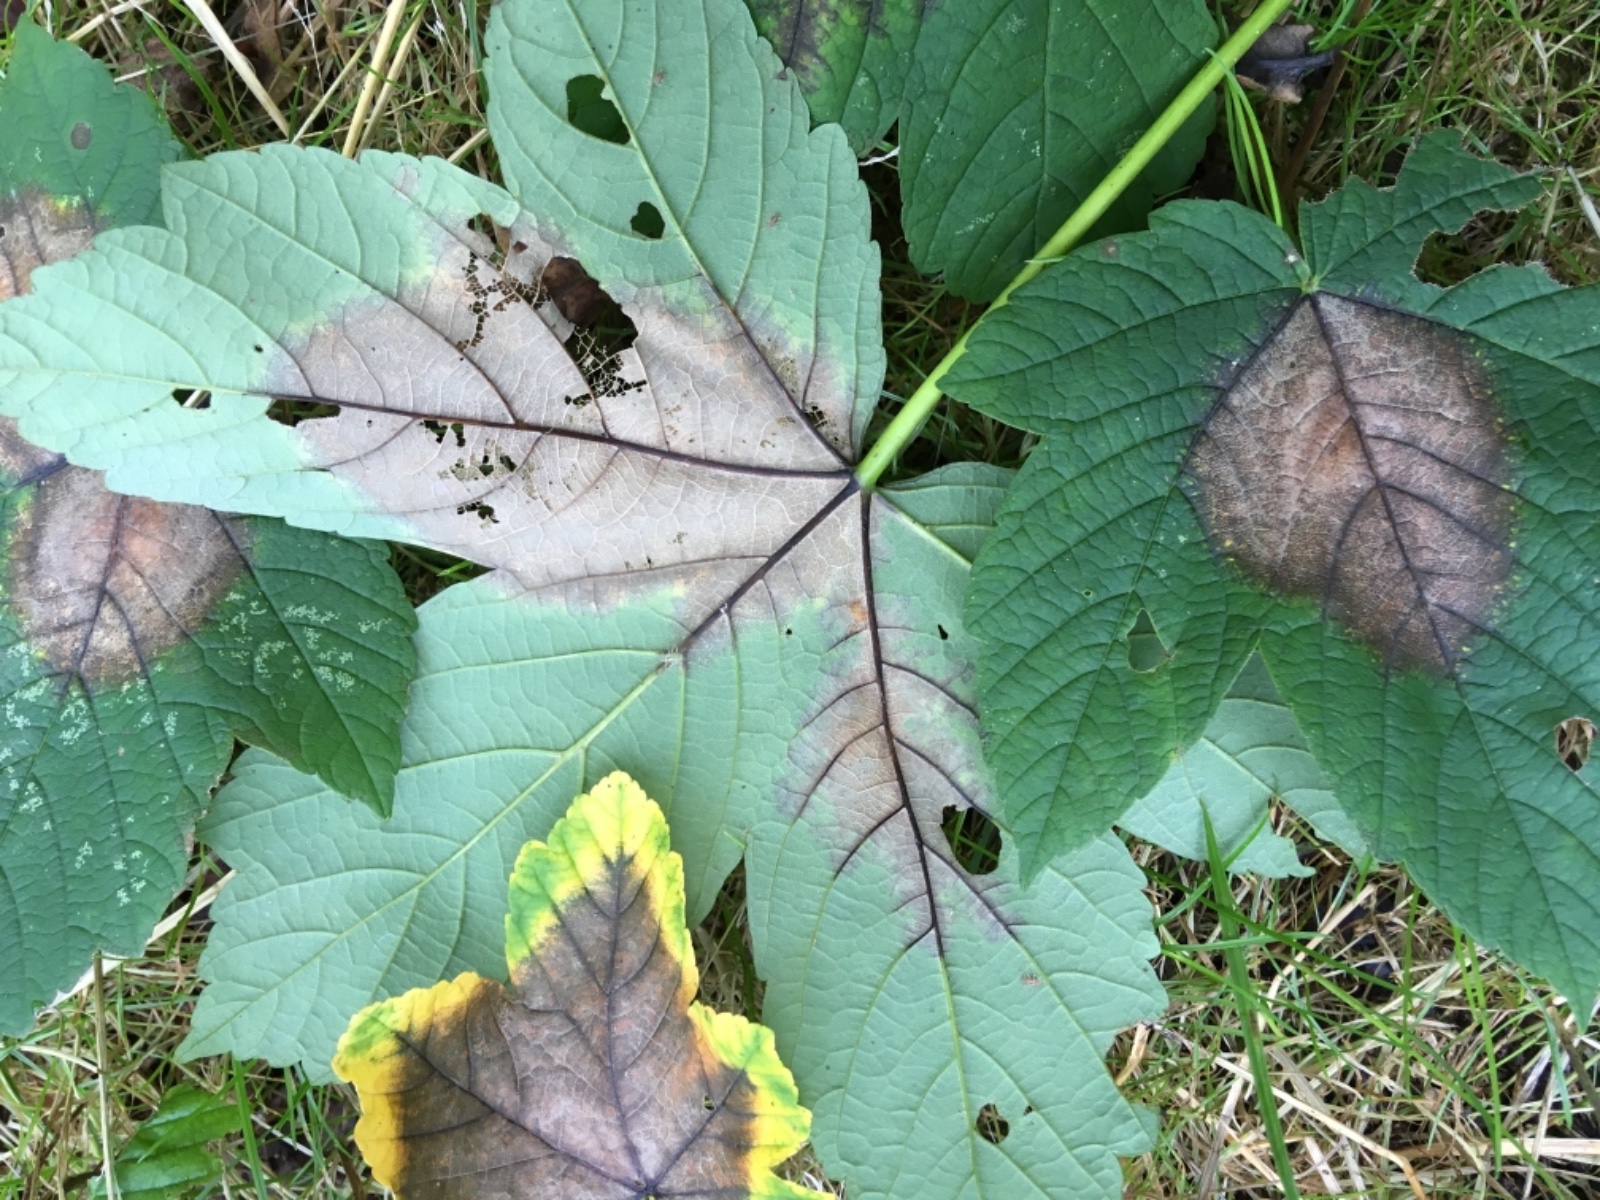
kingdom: Fungi
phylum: Ascomycota
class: Sordariomycetes
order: Diaporthales
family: Gnomoniaceae
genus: Pleuroceras
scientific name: Pleuroceras pseudoplatani
